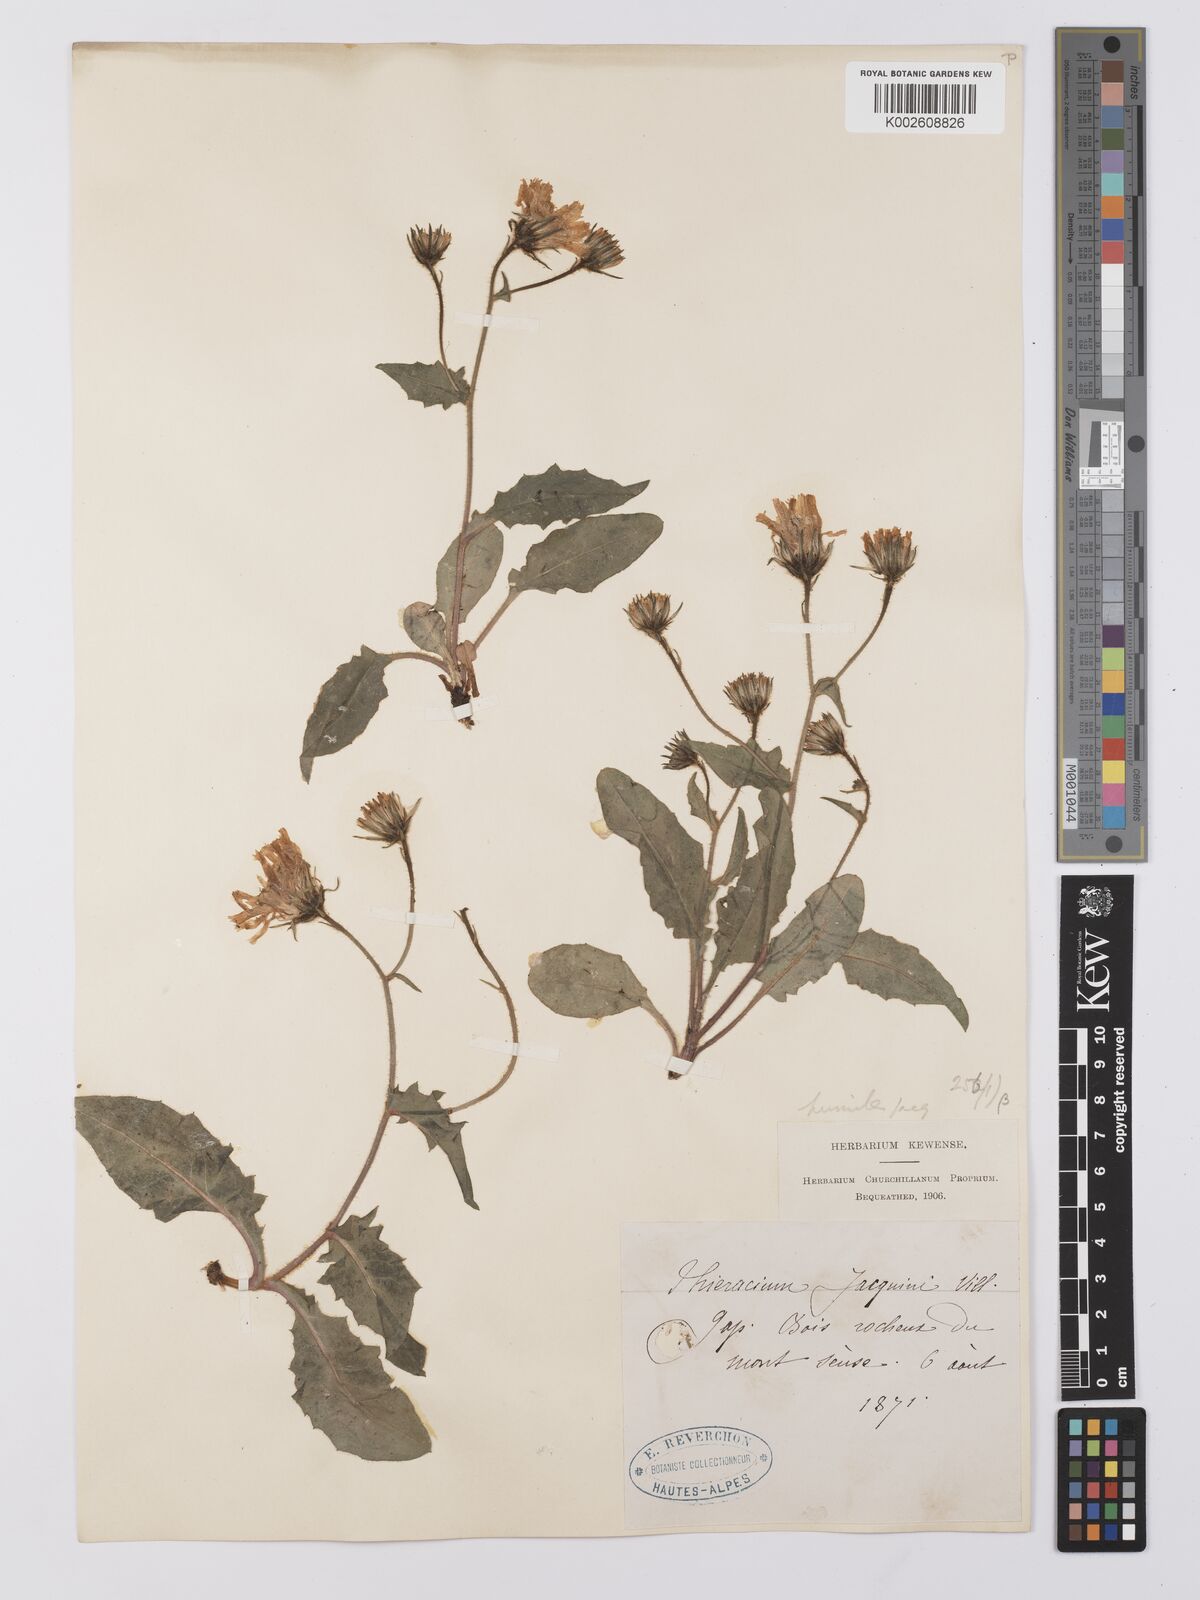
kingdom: Plantae
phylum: Tracheophyta
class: Magnoliopsida
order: Asterales
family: Asteraceae
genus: Hieracium
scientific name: Hieracium cottetii
